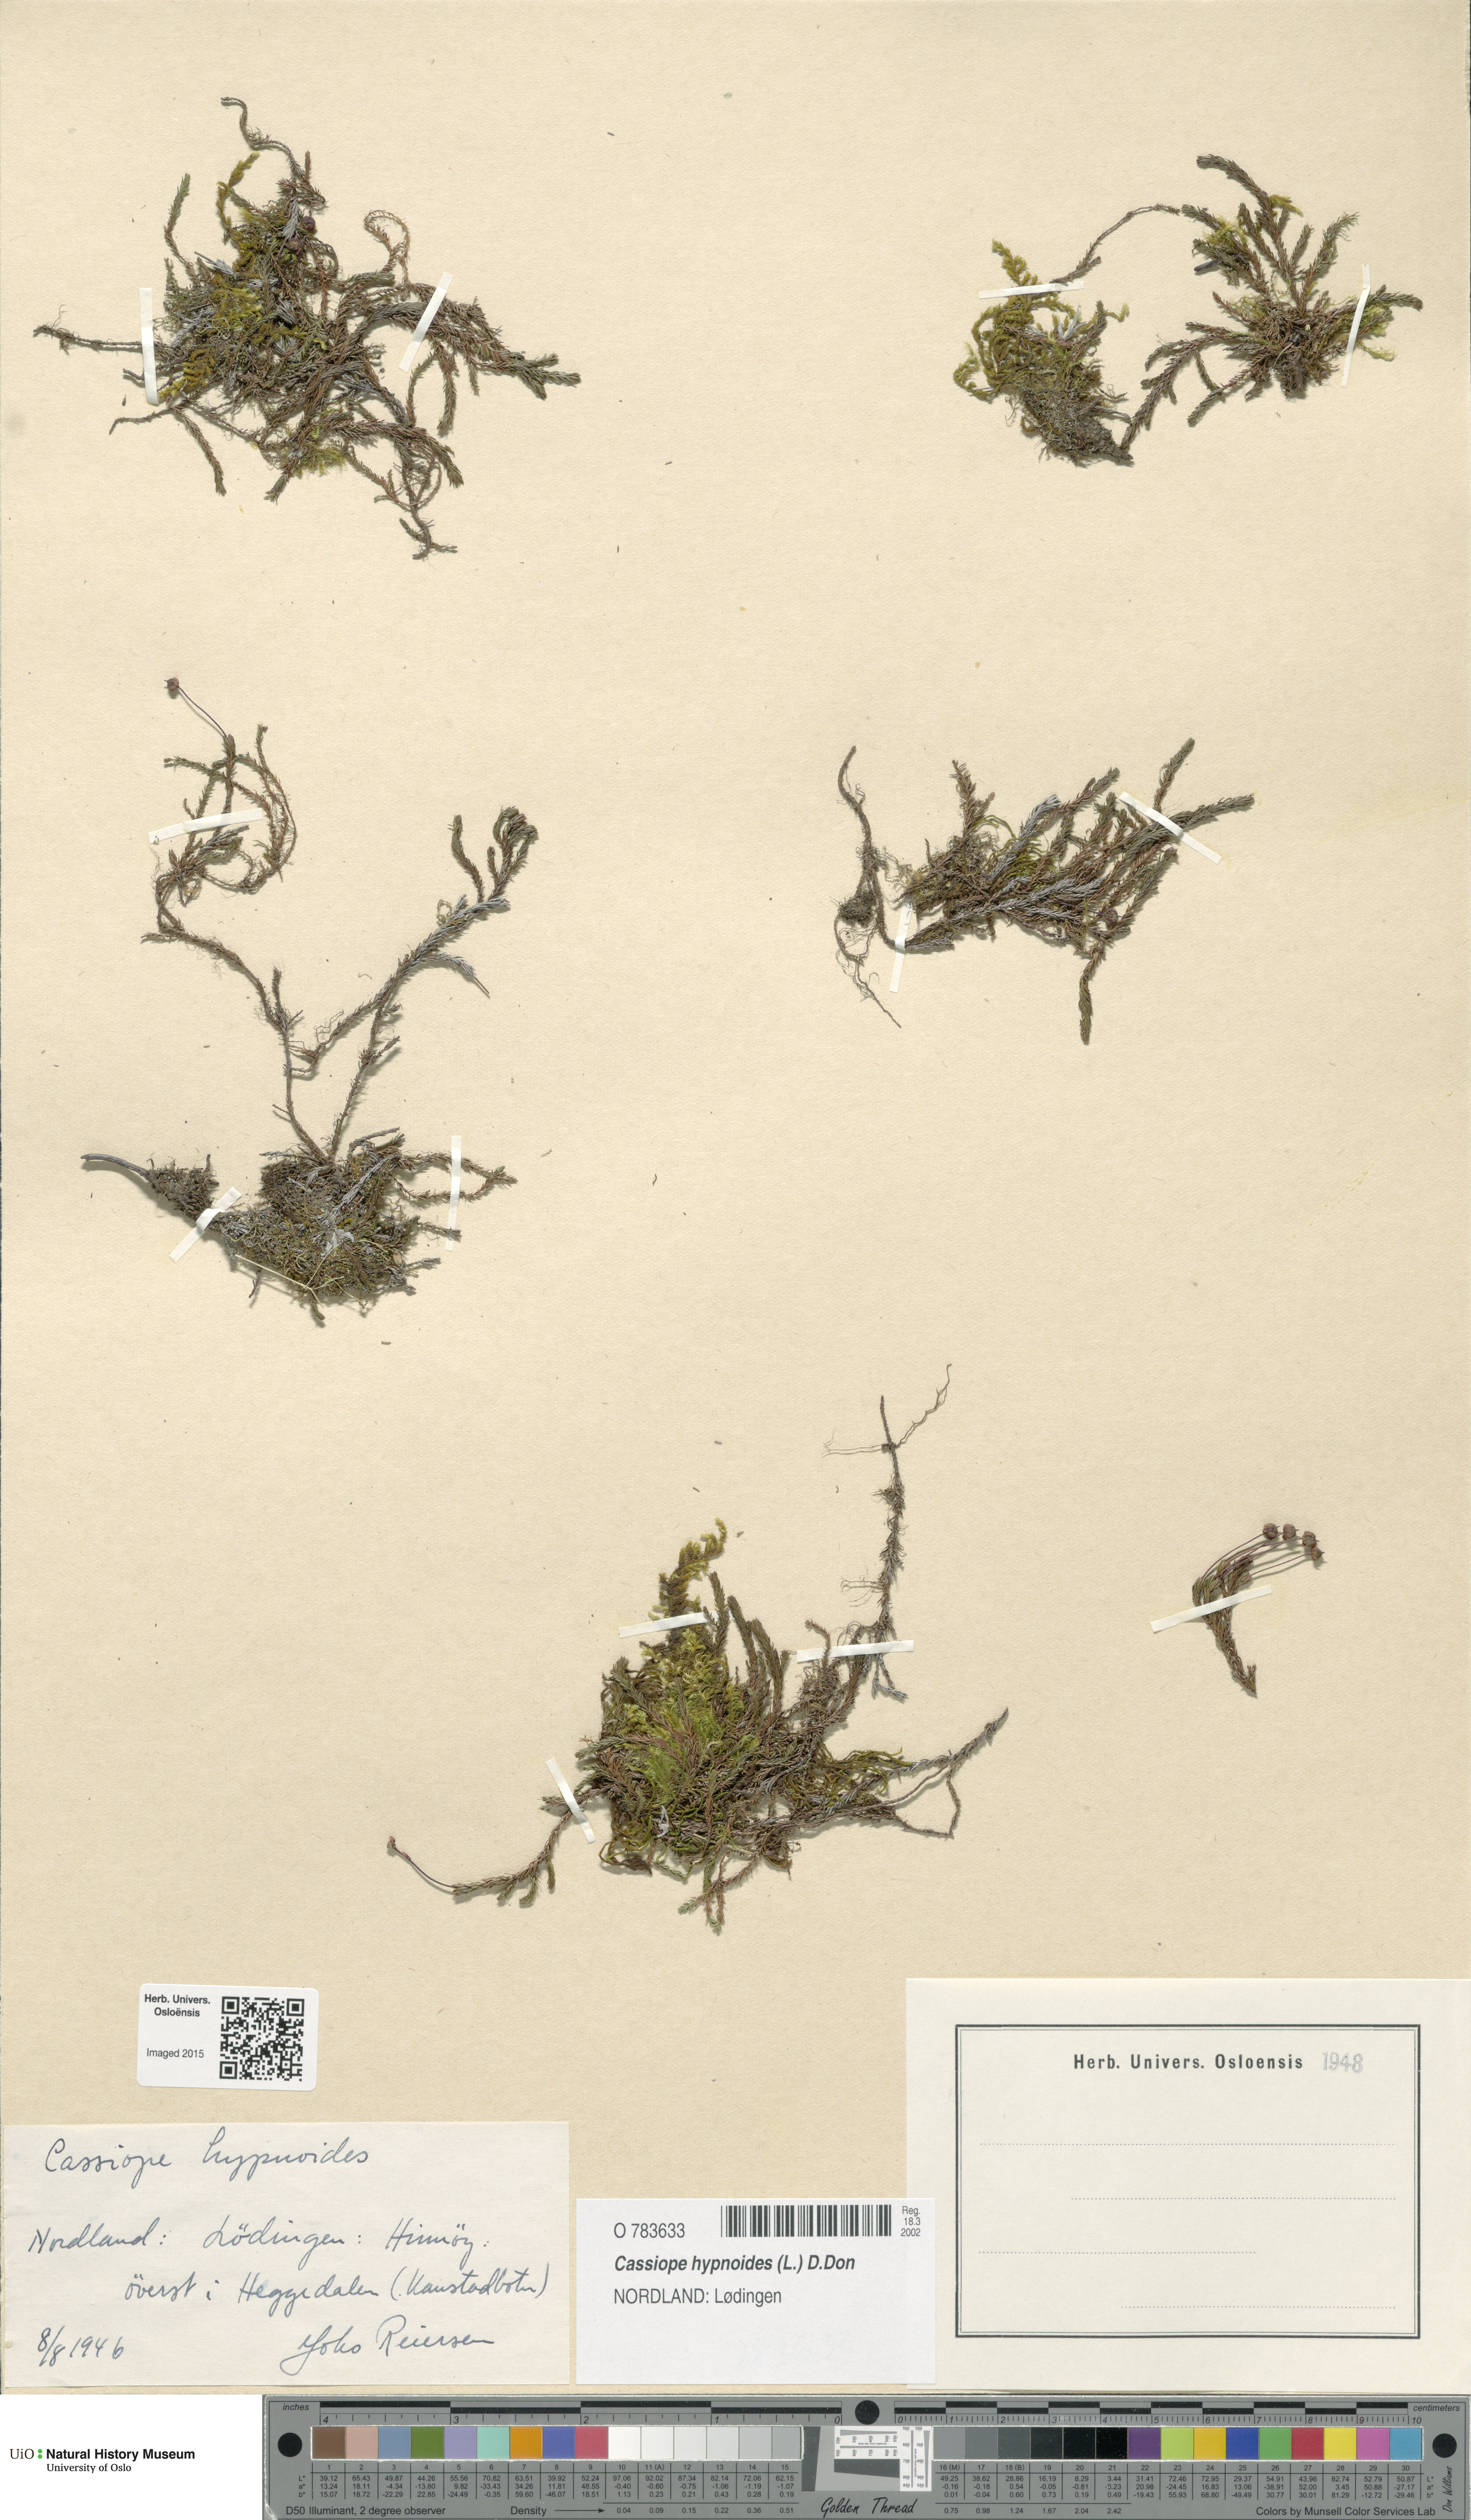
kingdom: Plantae
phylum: Tracheophyta
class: Magnoliopsida
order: Ericales
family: Ericaceae
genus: Harrimanella
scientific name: Harrimanella hypnoides
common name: Moss bell heather
